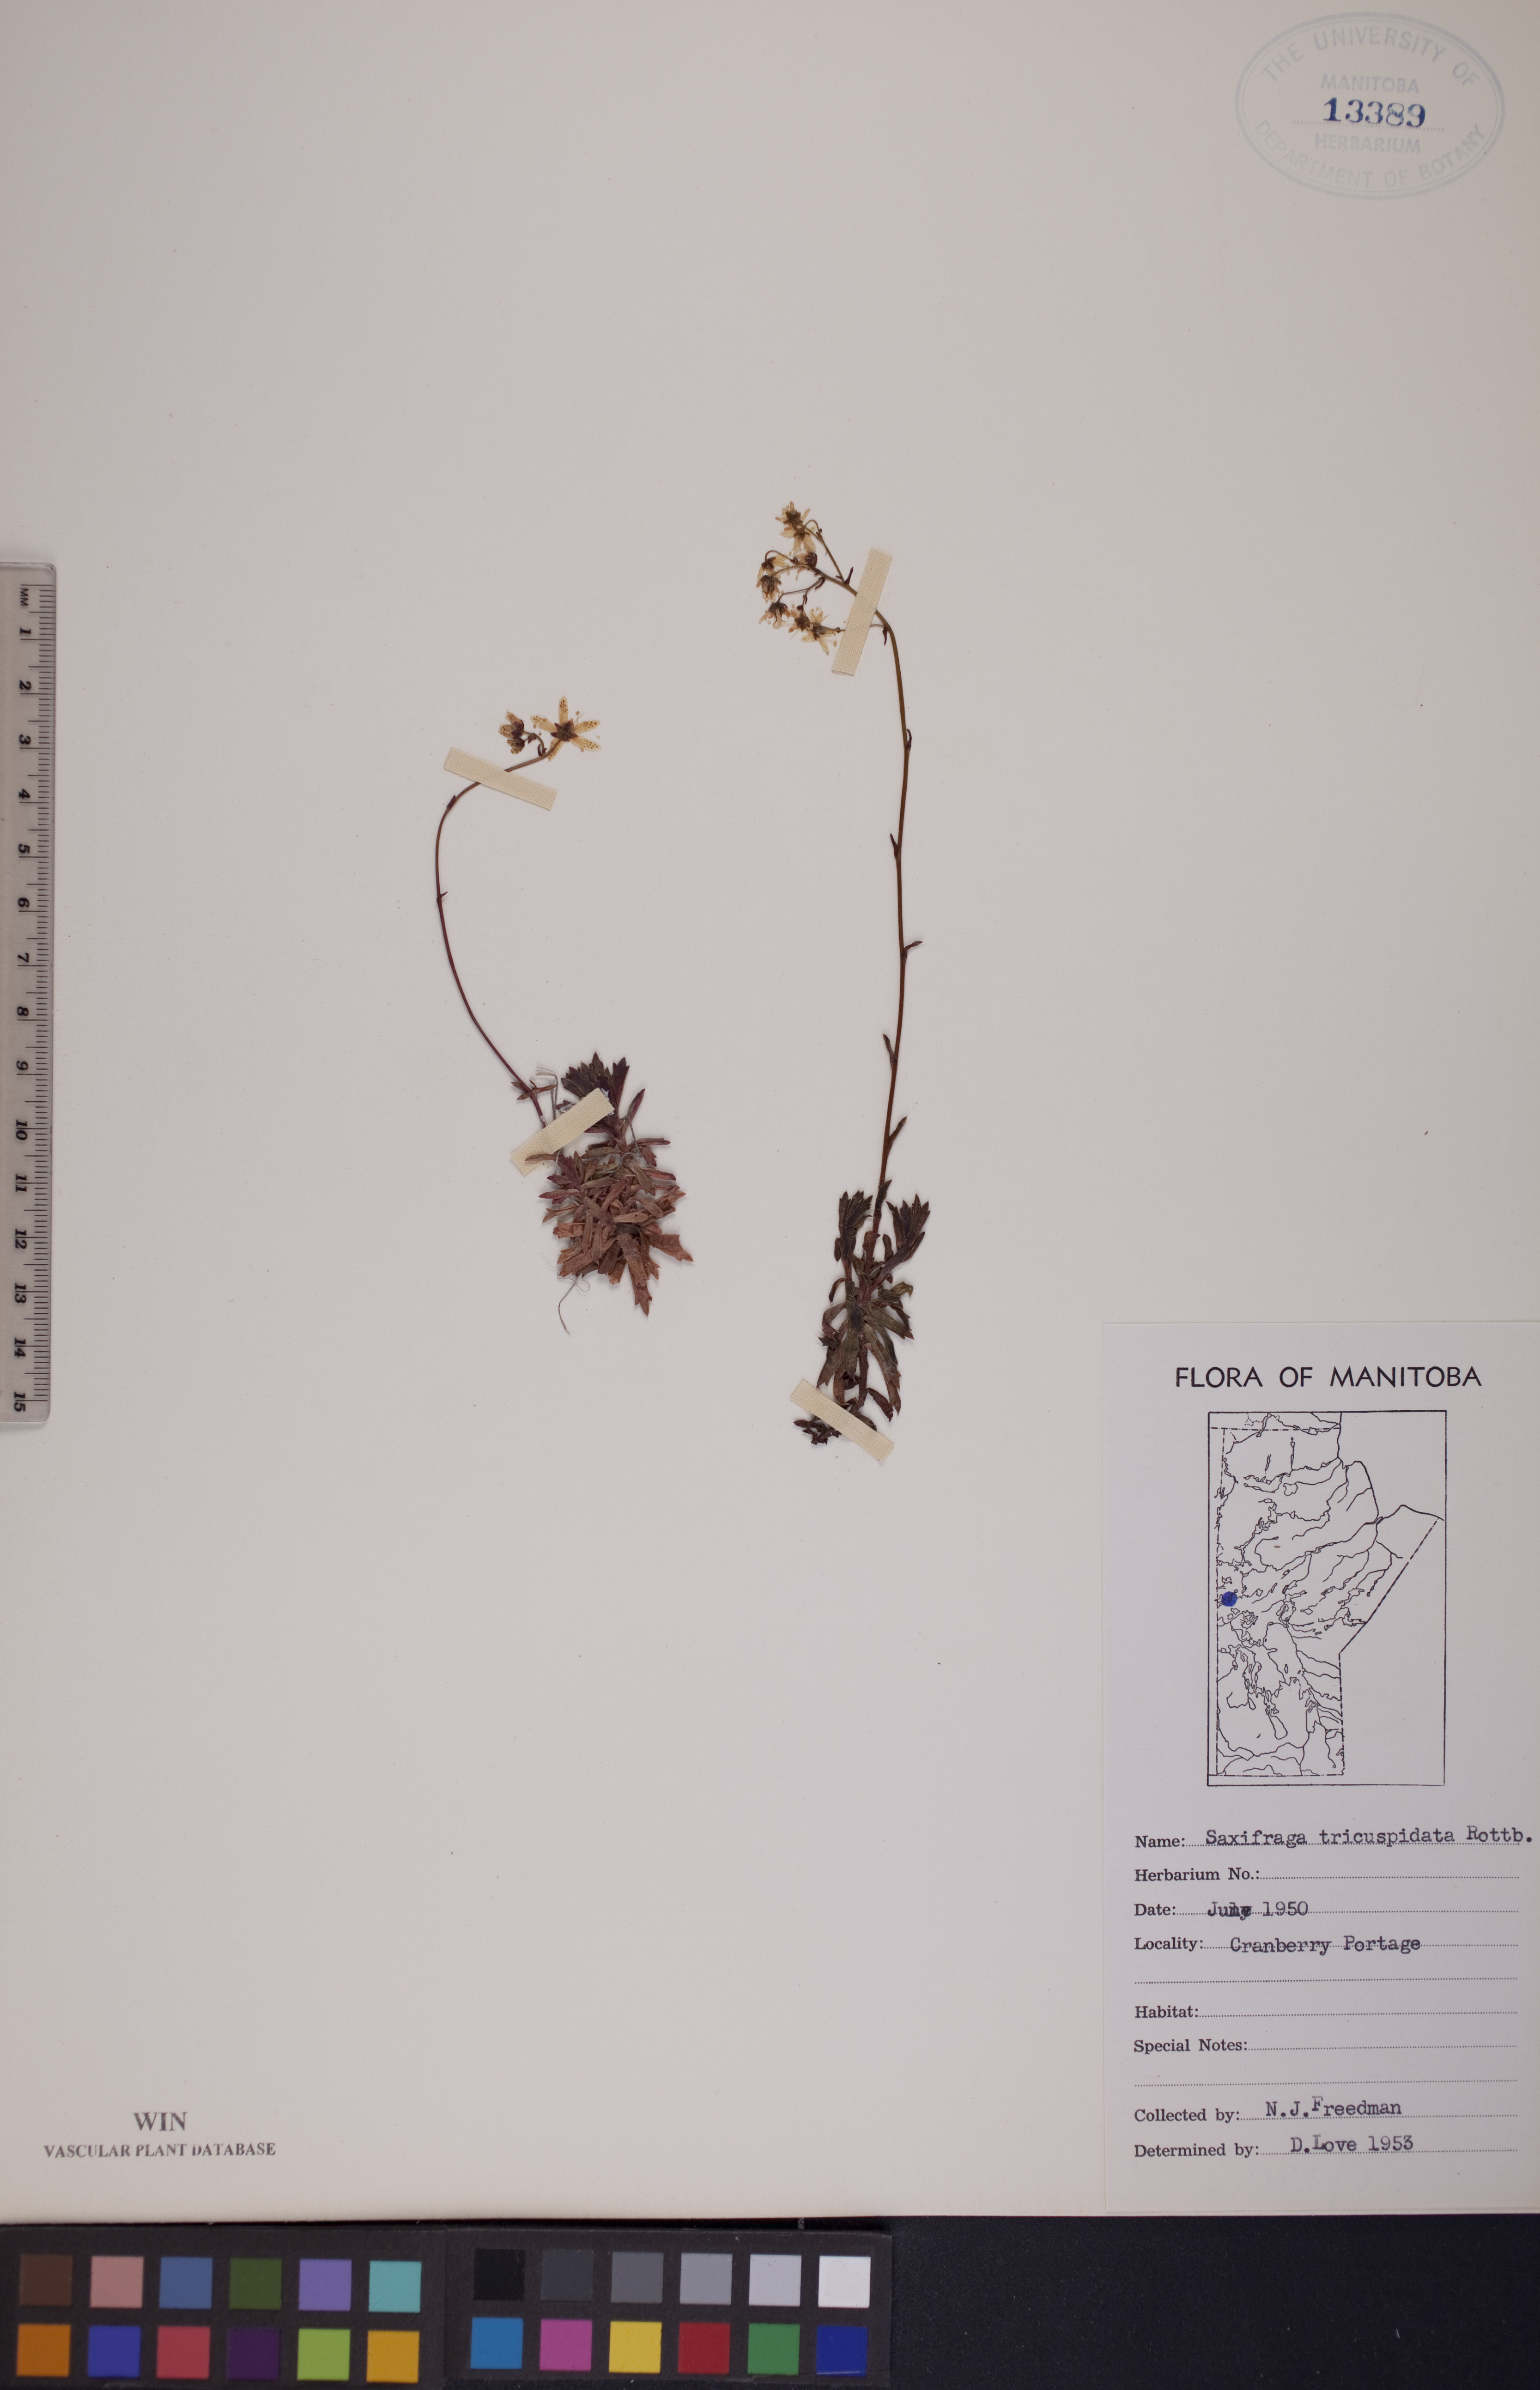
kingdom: Plantae
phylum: Tracheophyta
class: Magnoliopsida
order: Saxifragales
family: Saxifragaceae
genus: Saxifraga
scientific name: Saxifraga tricuspidata
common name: Prickly saxifrage
